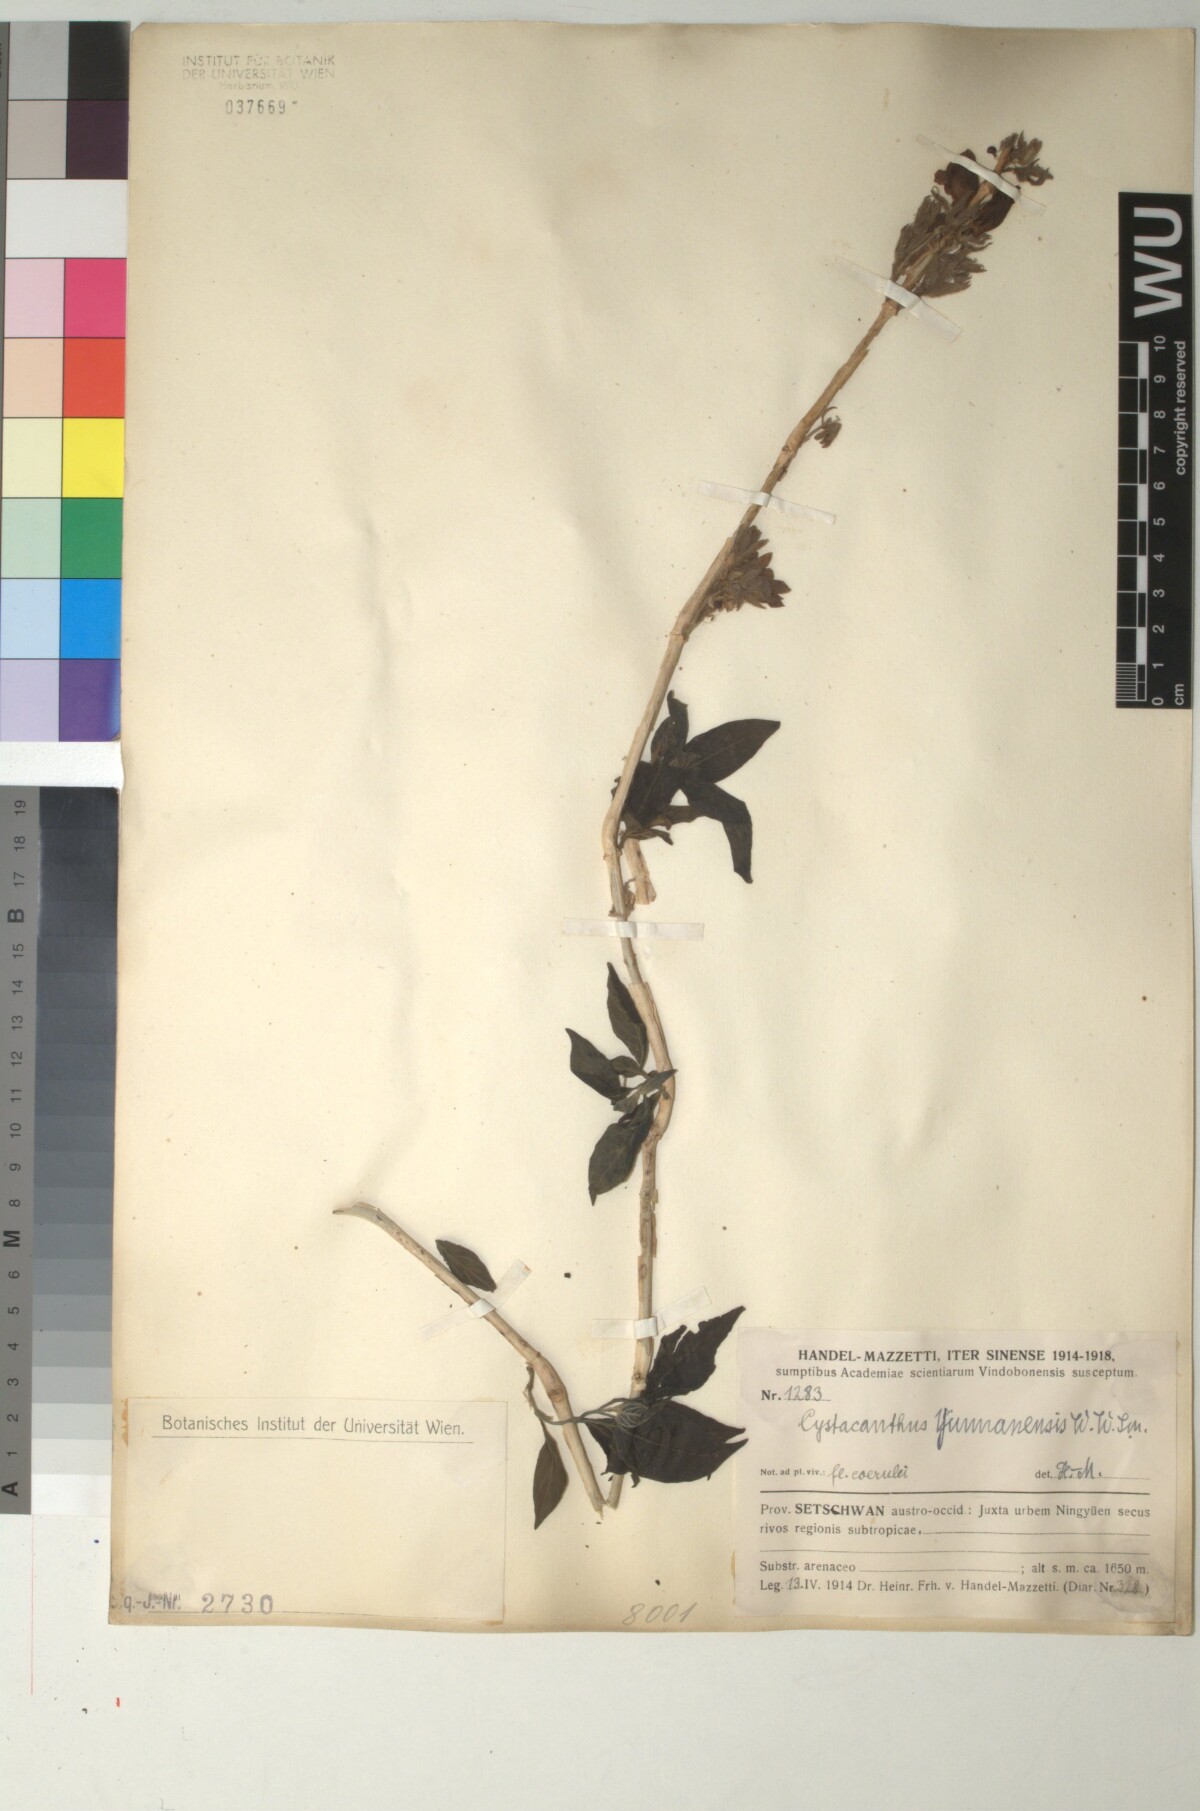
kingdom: Plantae
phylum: Tracheophyta
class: Magnoliopsida
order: Lamiales
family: Acanthaceae
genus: Phlogacanthus
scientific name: Phlogacanthus yangtsekiangensis
